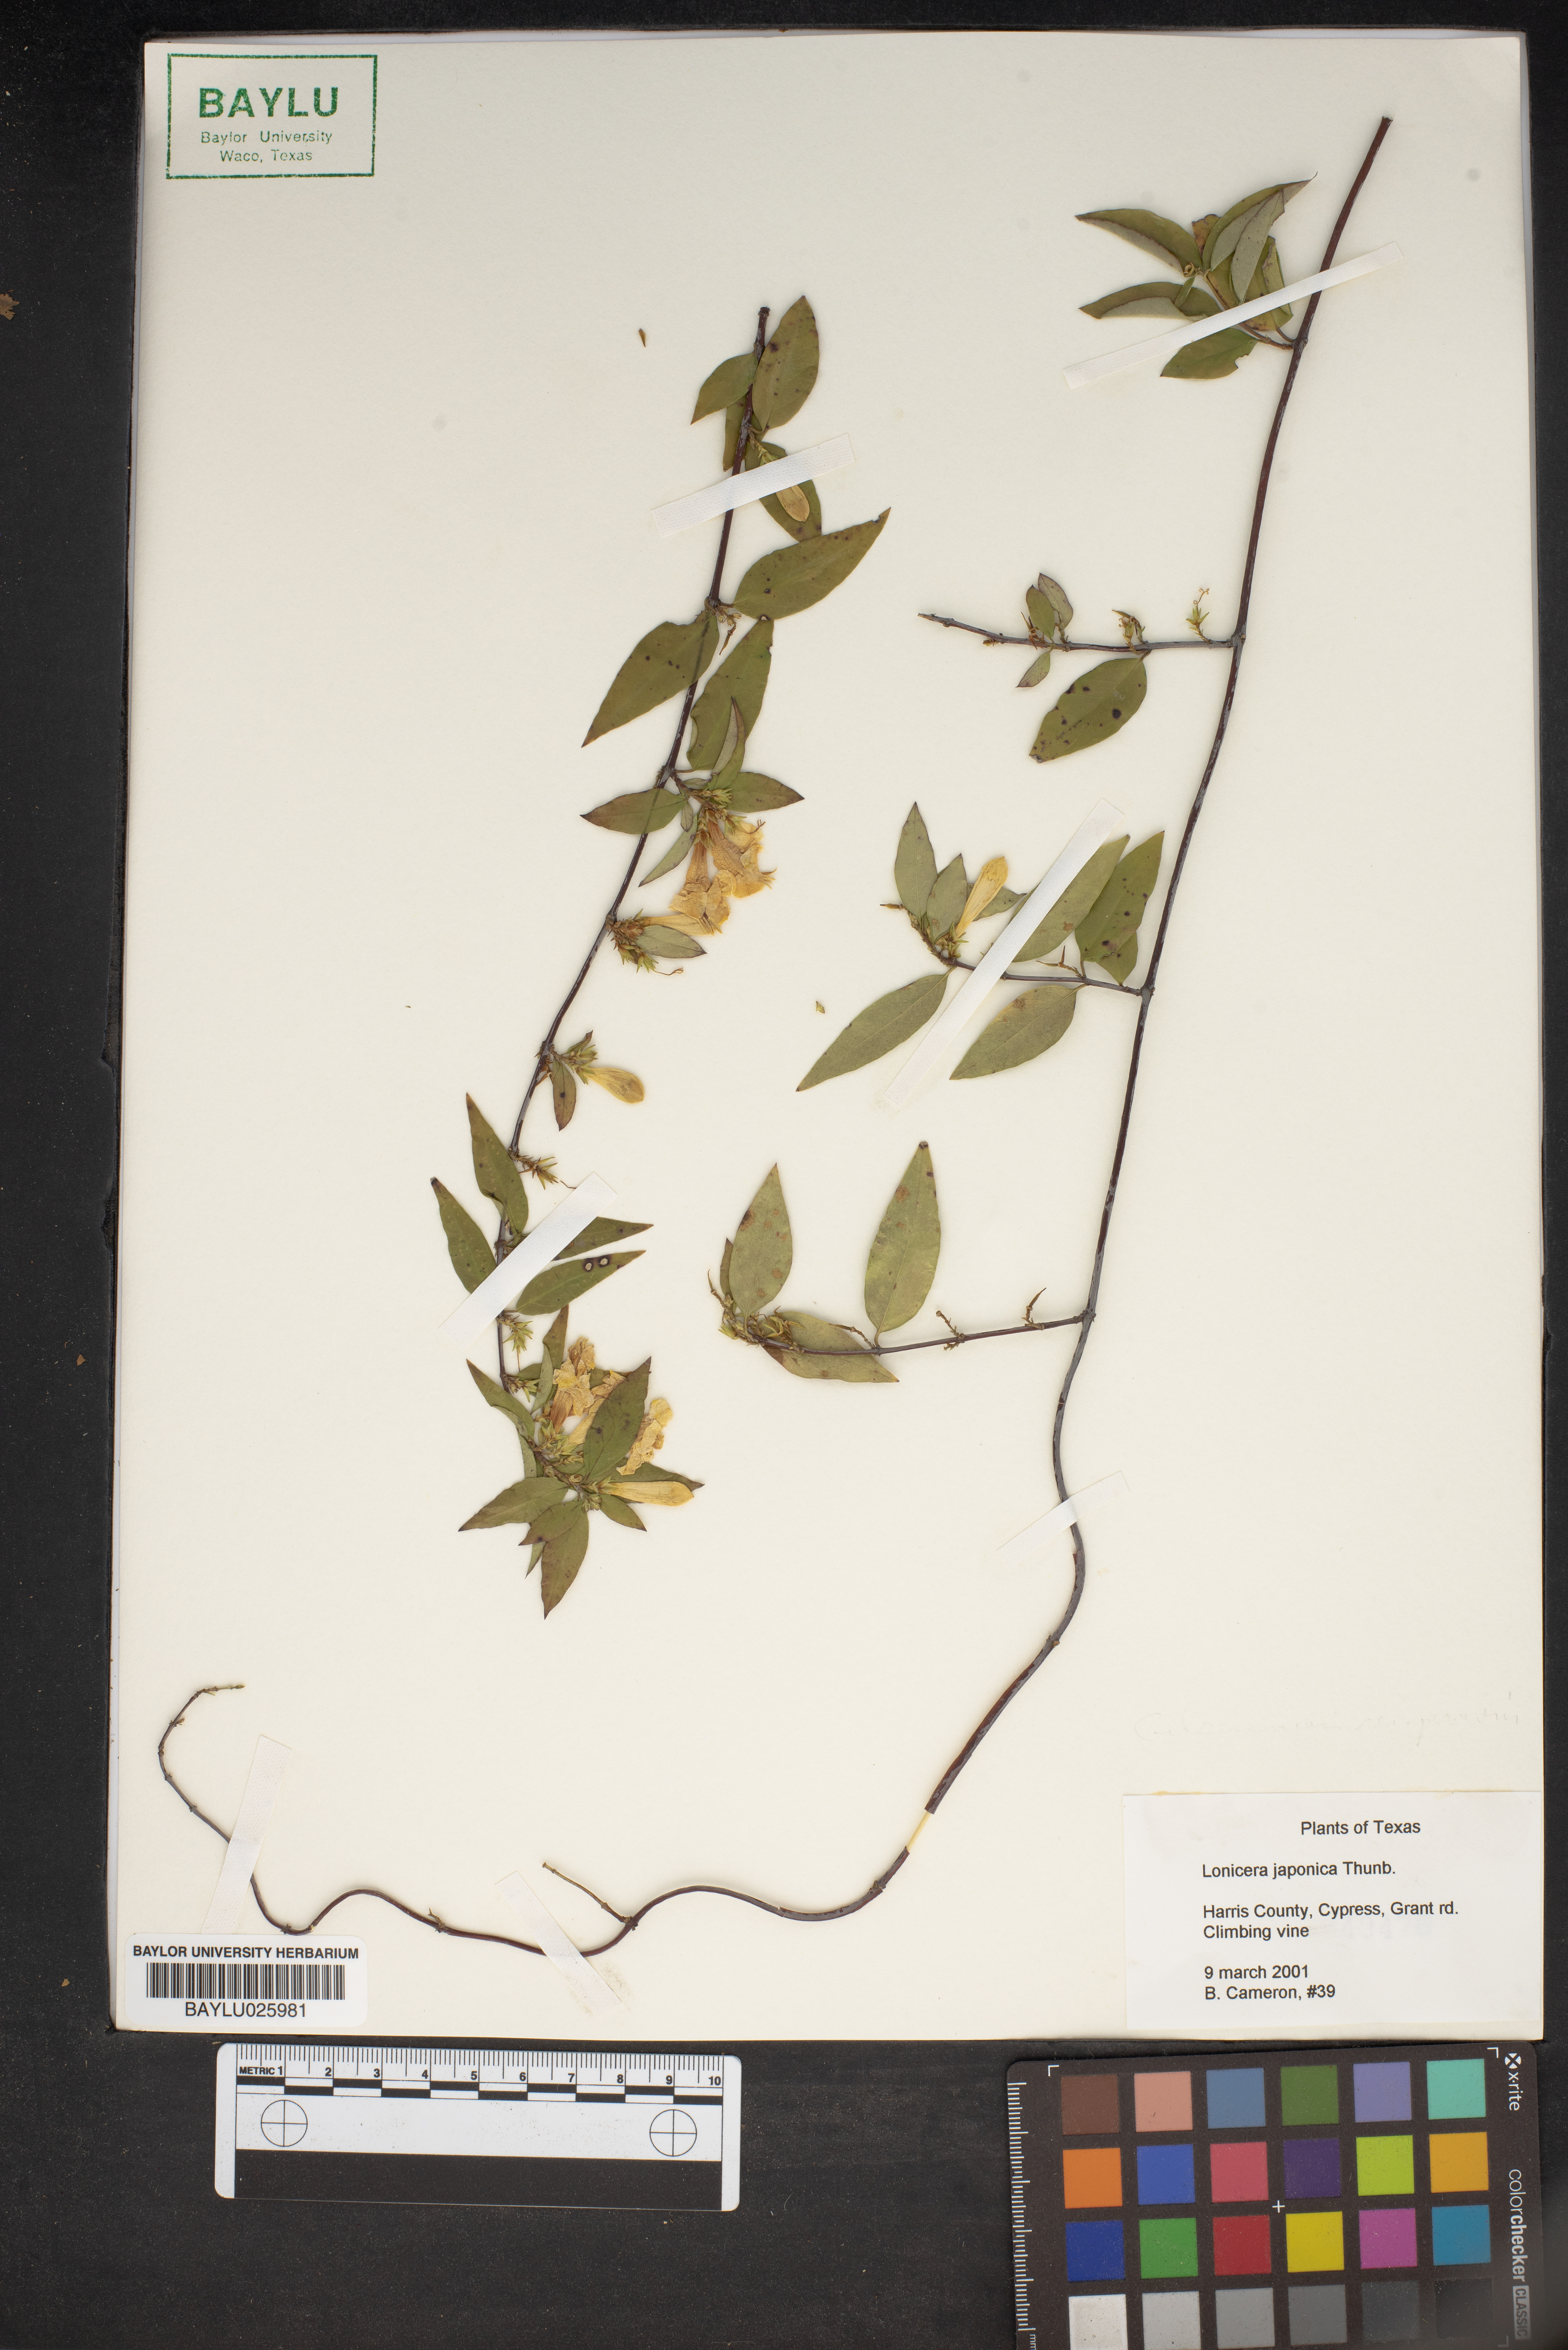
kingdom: Plantae
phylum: Tracheophyta
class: Magnoliopsida
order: Dipsacales
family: Caprifoliaceae
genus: Lonicera
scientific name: Lonicera japonica
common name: Japanese honeysuckle
